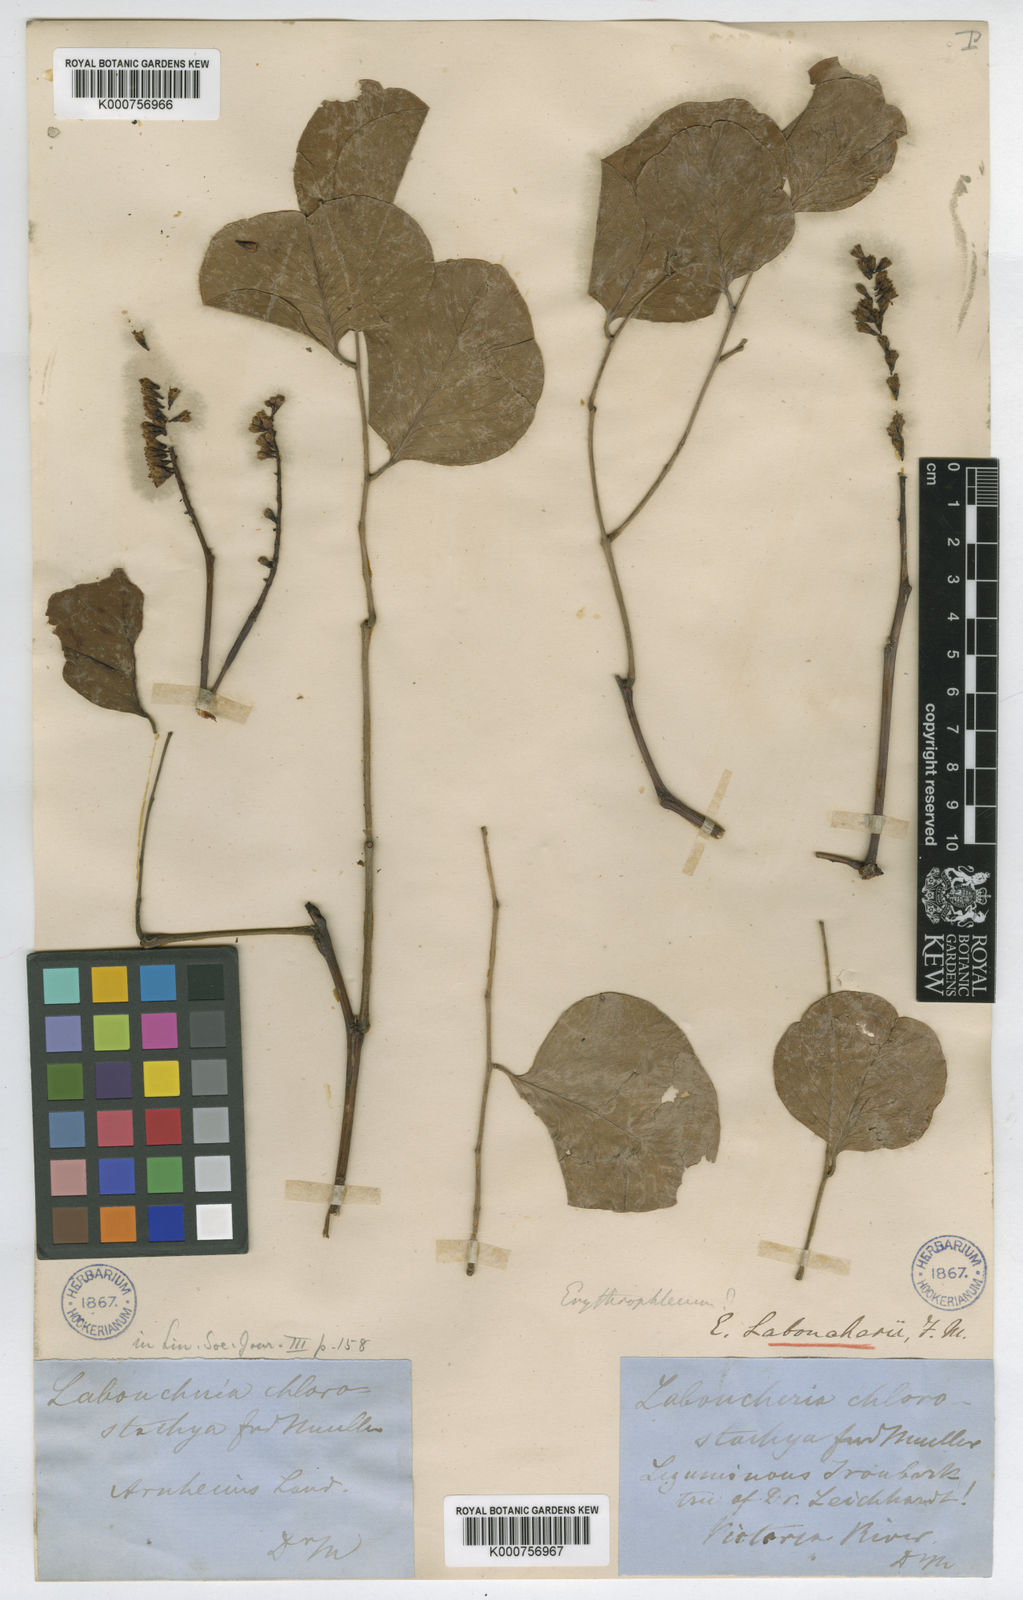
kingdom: Plantae
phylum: Tracheophyta
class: Magnoliopsida
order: Fabales
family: Fabaceae
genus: Erythrophleum
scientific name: Erythrophleum chlorostachys
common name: Black-bean
